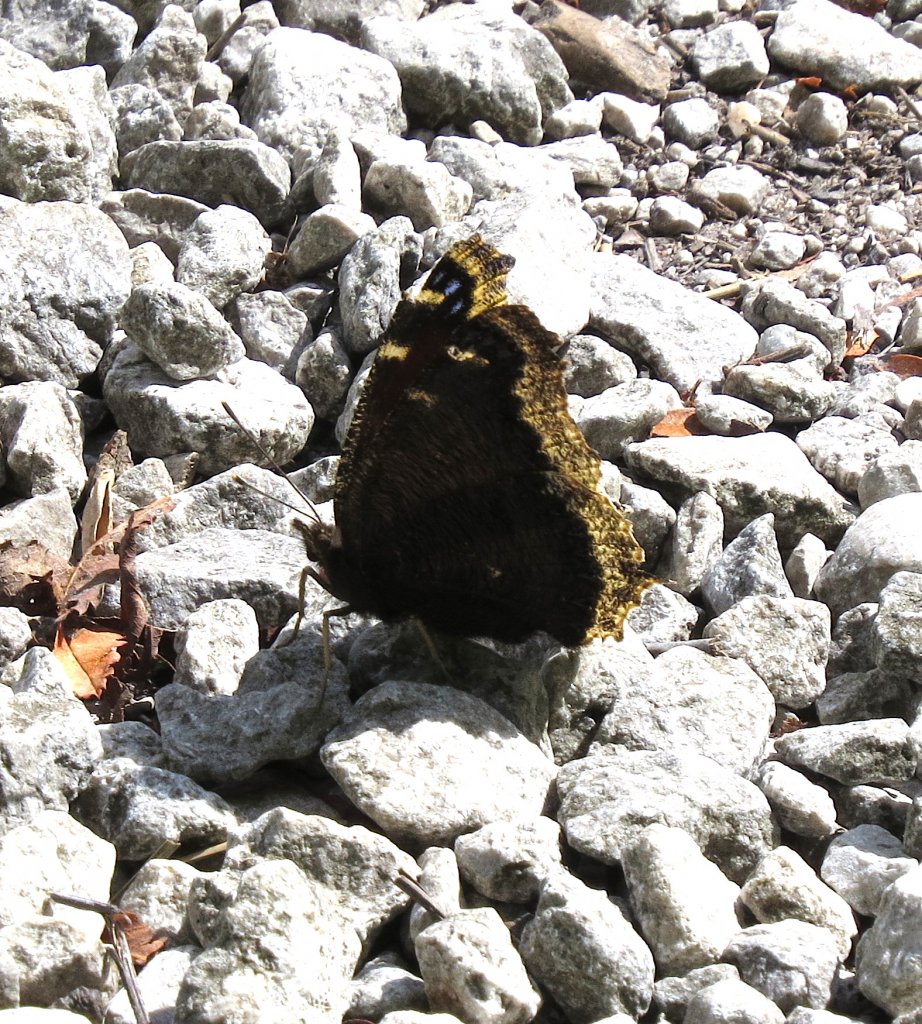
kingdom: Animalia
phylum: Arthropoda
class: Insecta
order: Lepidoptera
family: Nymphalidae
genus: Nymphalis
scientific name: Nymphalis antiopa
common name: Mourning Cloak
